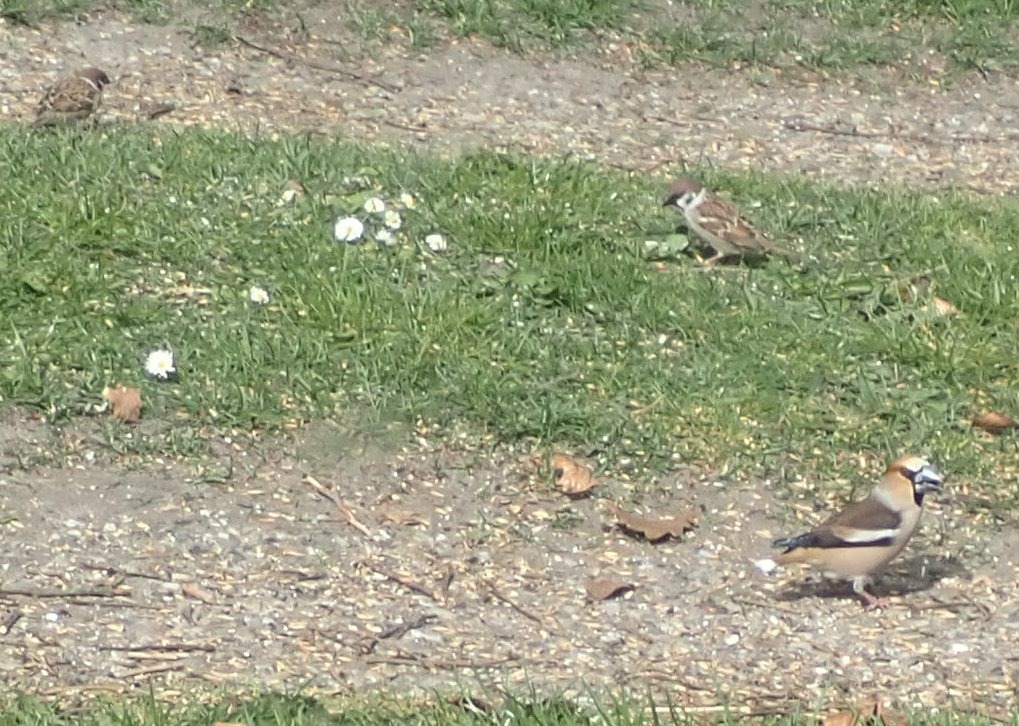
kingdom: Animalia
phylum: Chordata
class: Aves
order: Passeriformes
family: Fringillidae
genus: Coccothraustes
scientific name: Coccothraustes coccothraustes
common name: Kernebider
